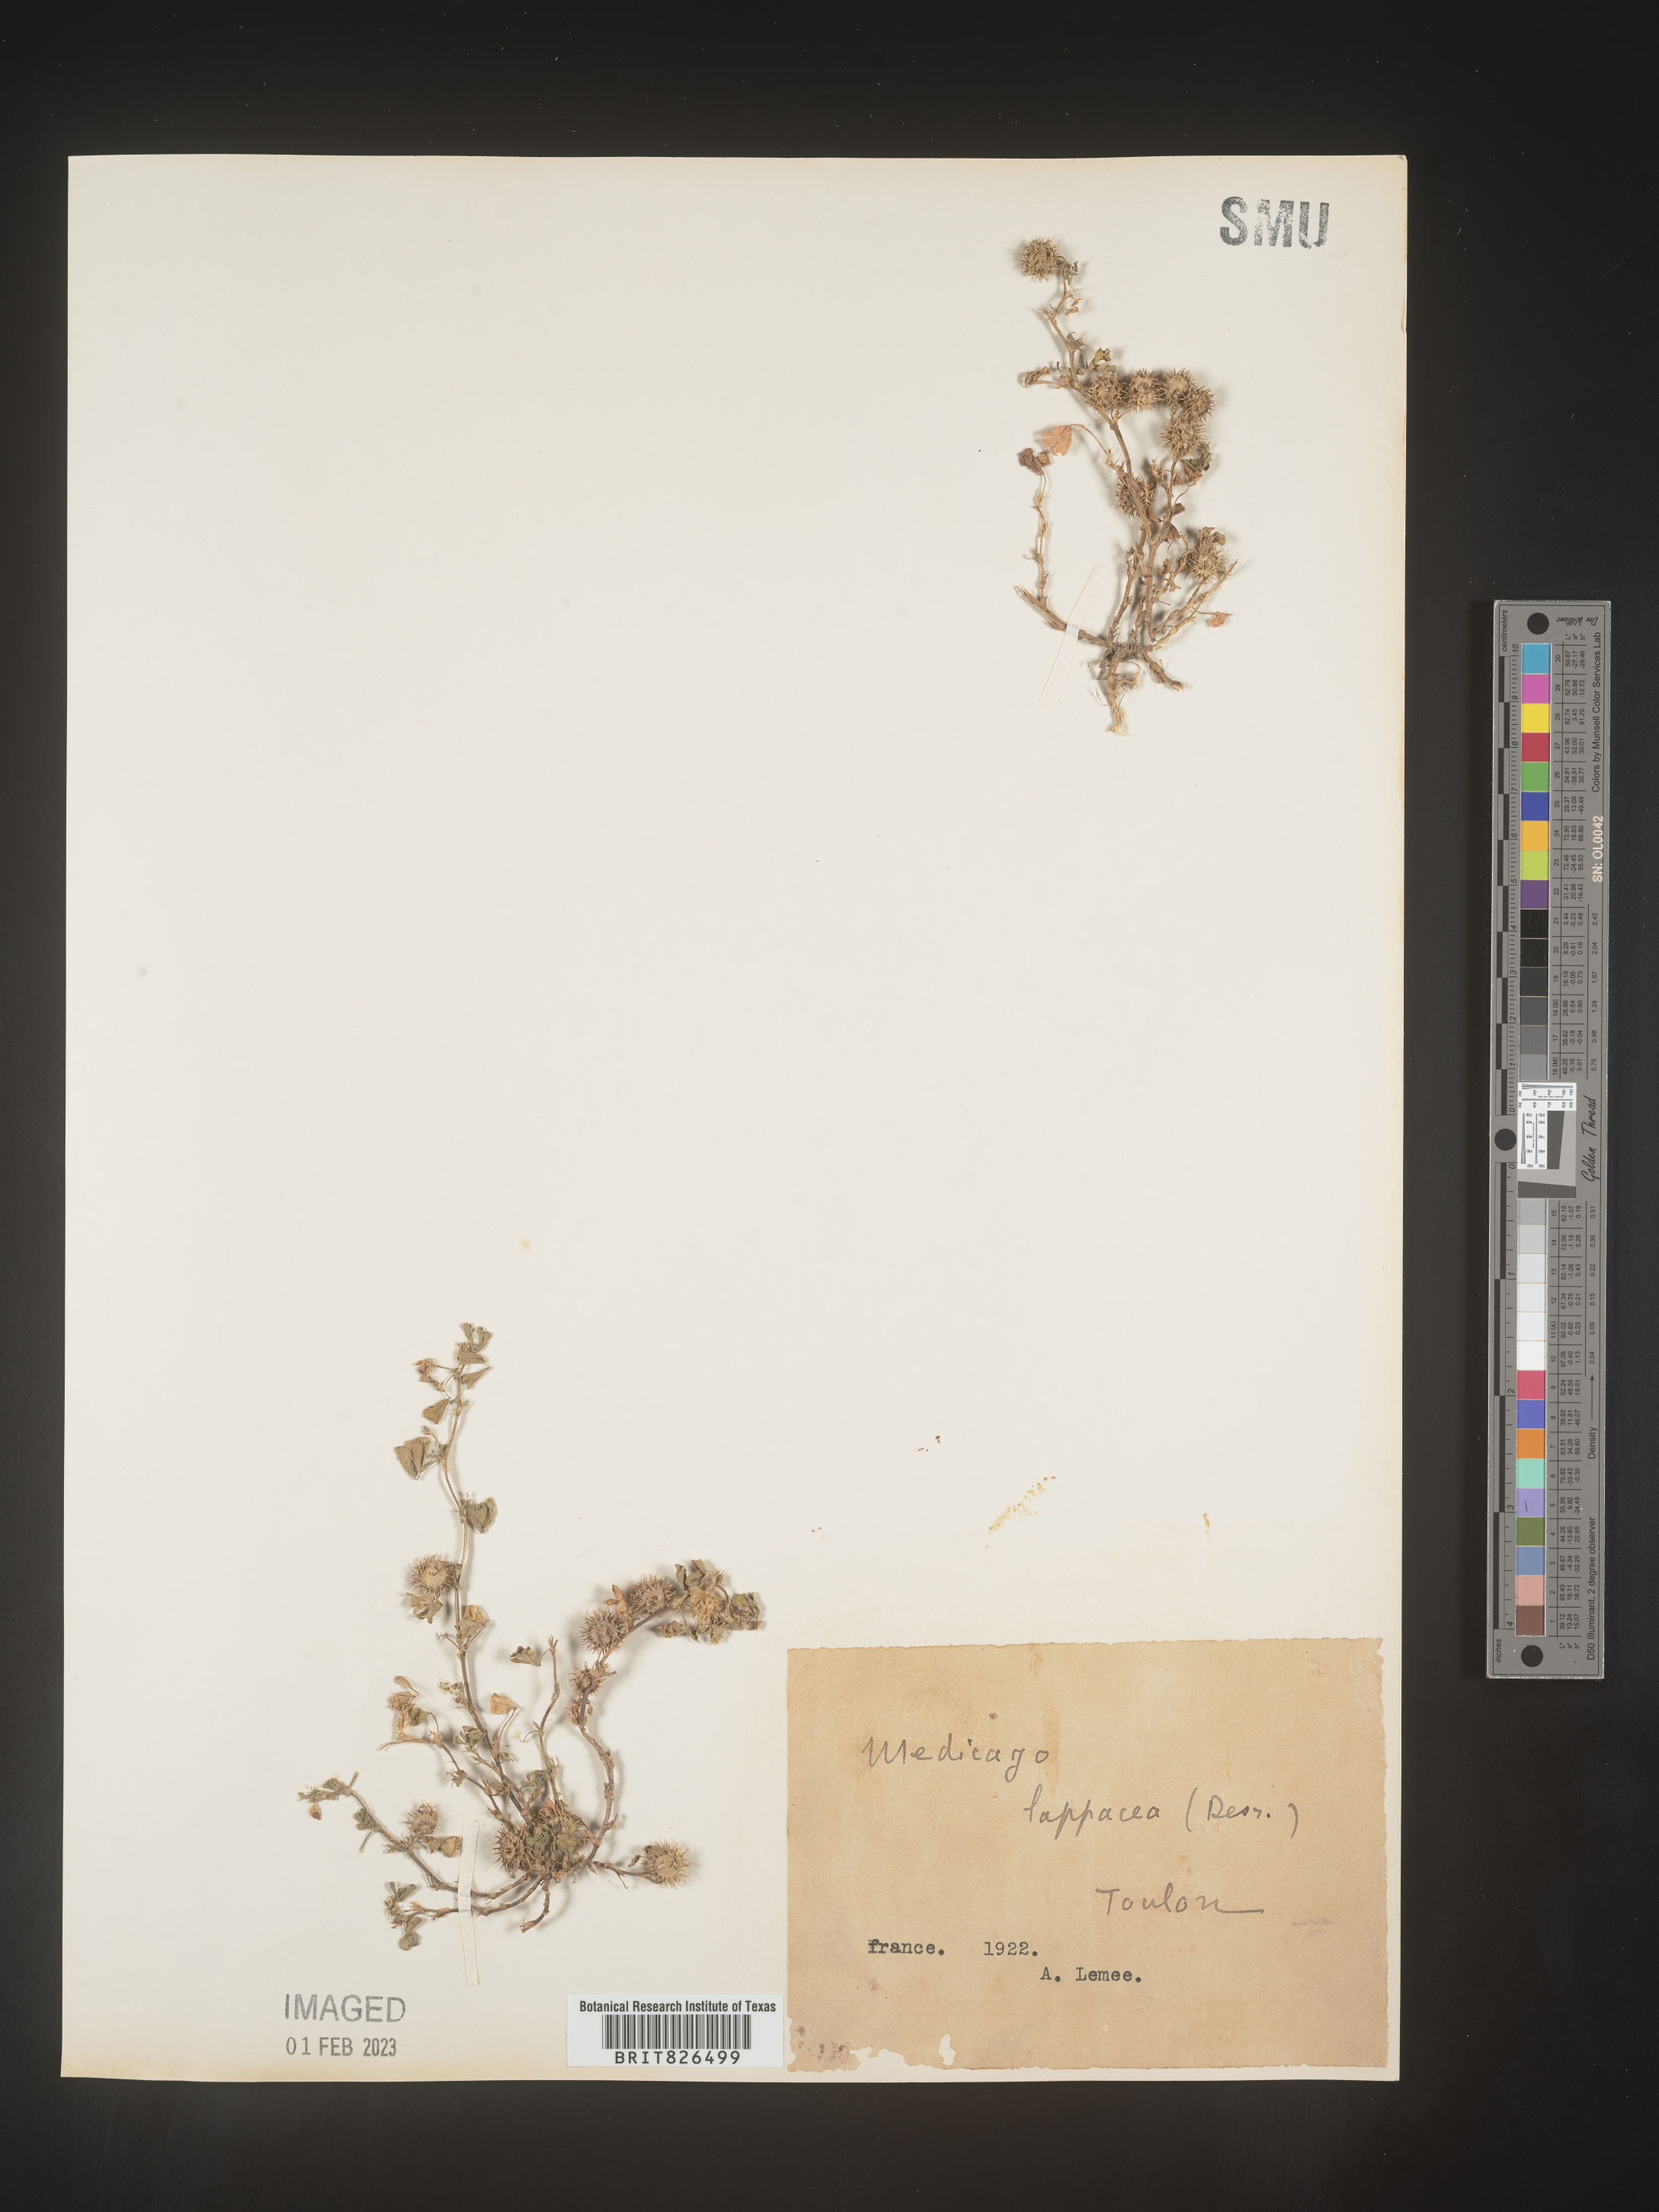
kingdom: Plantae
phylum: Tracheophyta
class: Magnoliopsida
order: Fabales
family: Fabaceae
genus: Medicago
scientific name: Medicago
